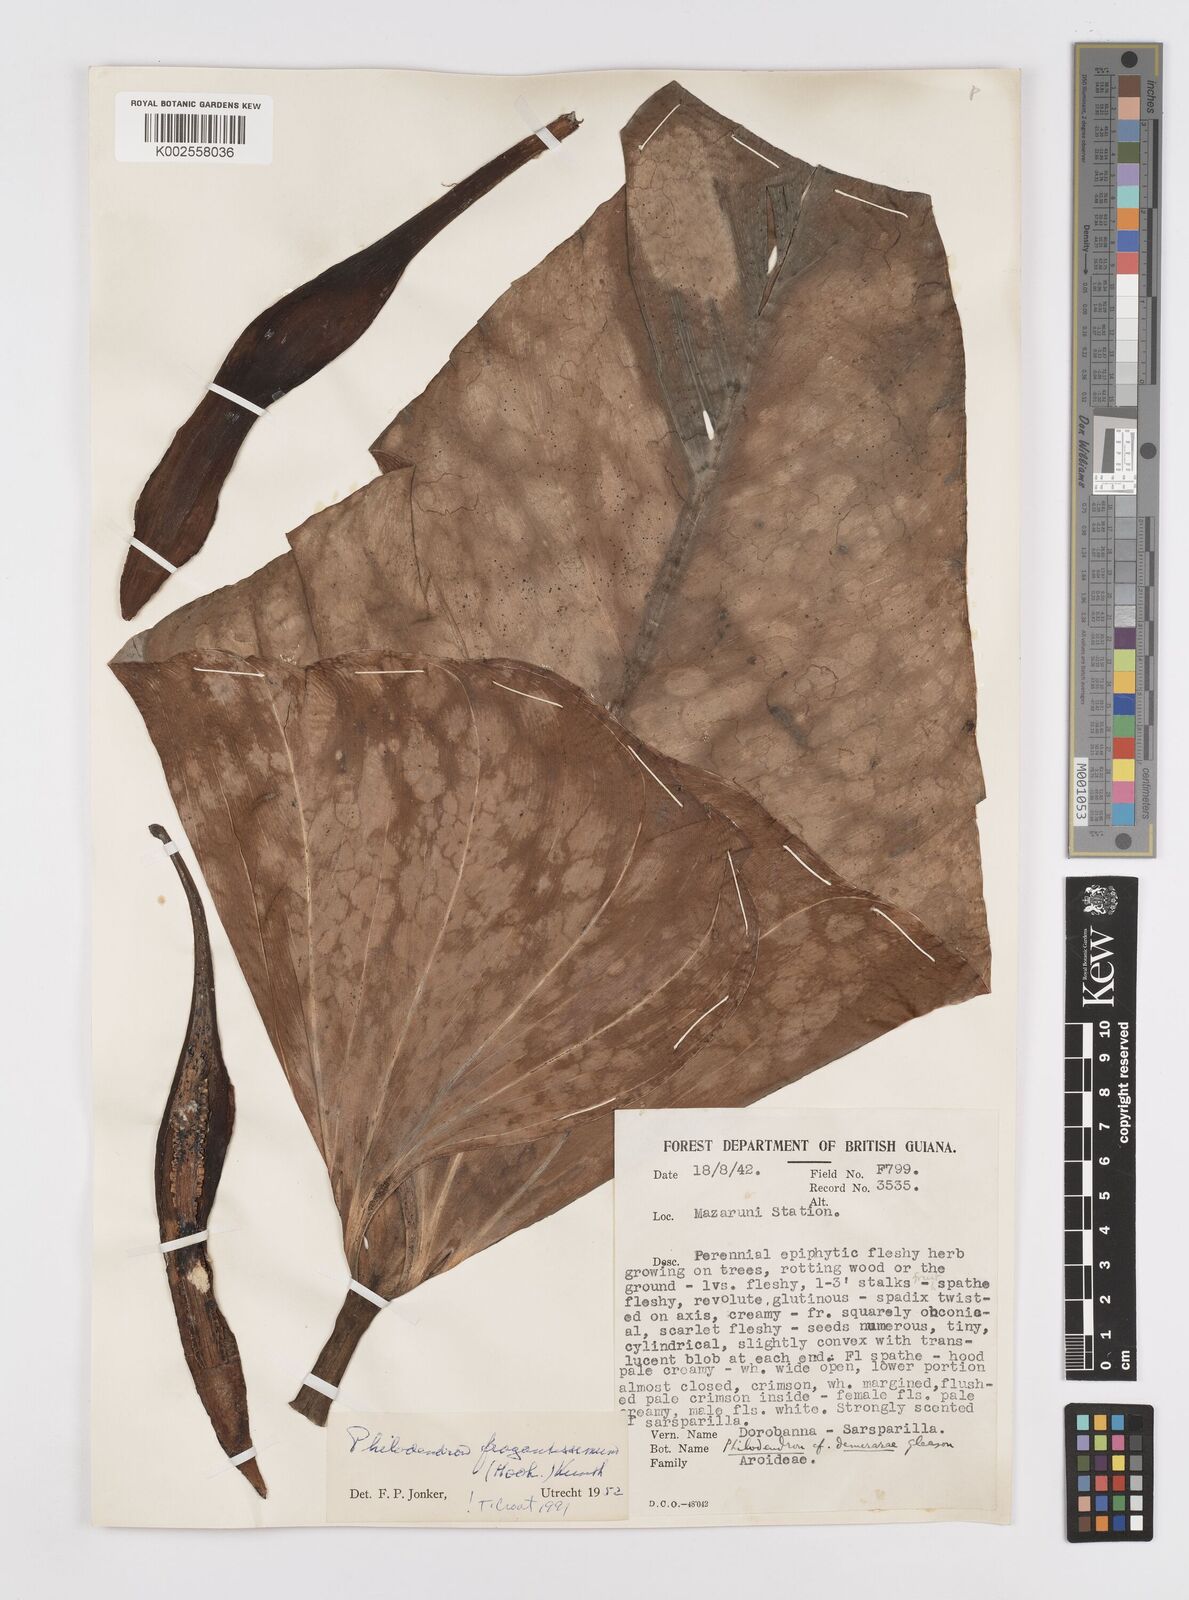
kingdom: Plantae
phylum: Tracheophyta
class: Liliopsida
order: Alismatales
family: Araceae
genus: Philodendron
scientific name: Philodendron fragrantissimum
